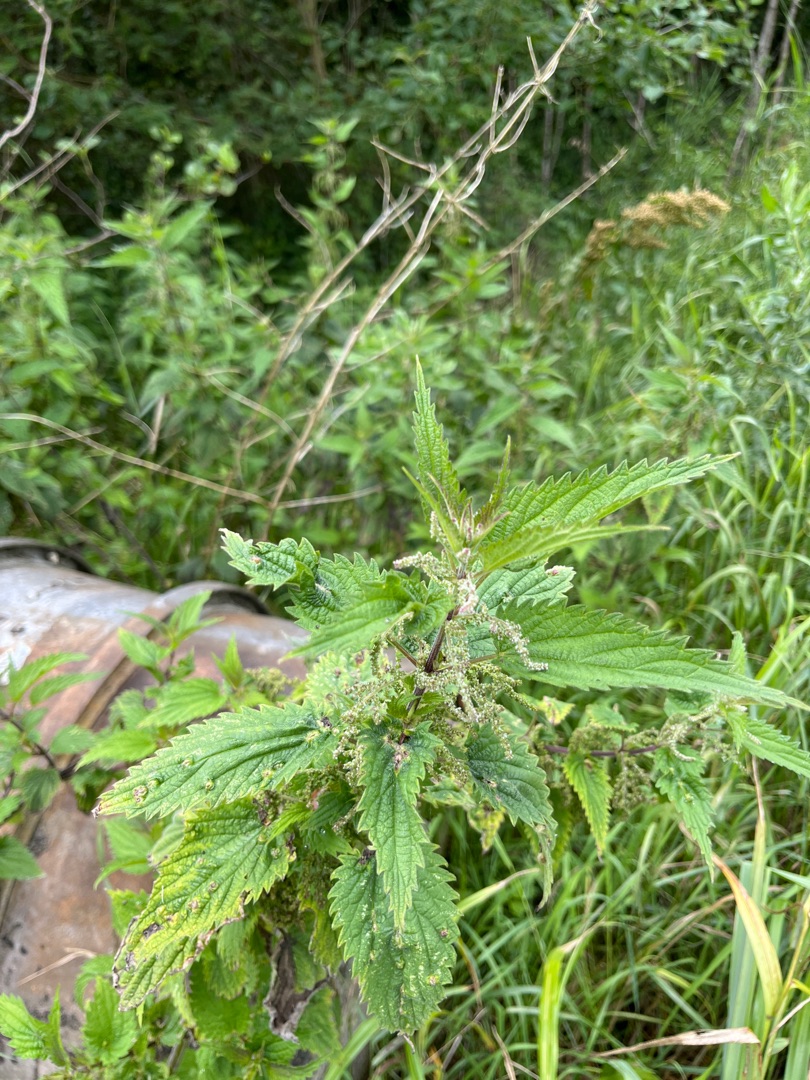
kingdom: Plantae
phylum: Tracheophyta
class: Magnoliopsida
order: Rosales
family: Urticaceae
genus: Urtica
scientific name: Urtica dioica
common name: Stor nælde
